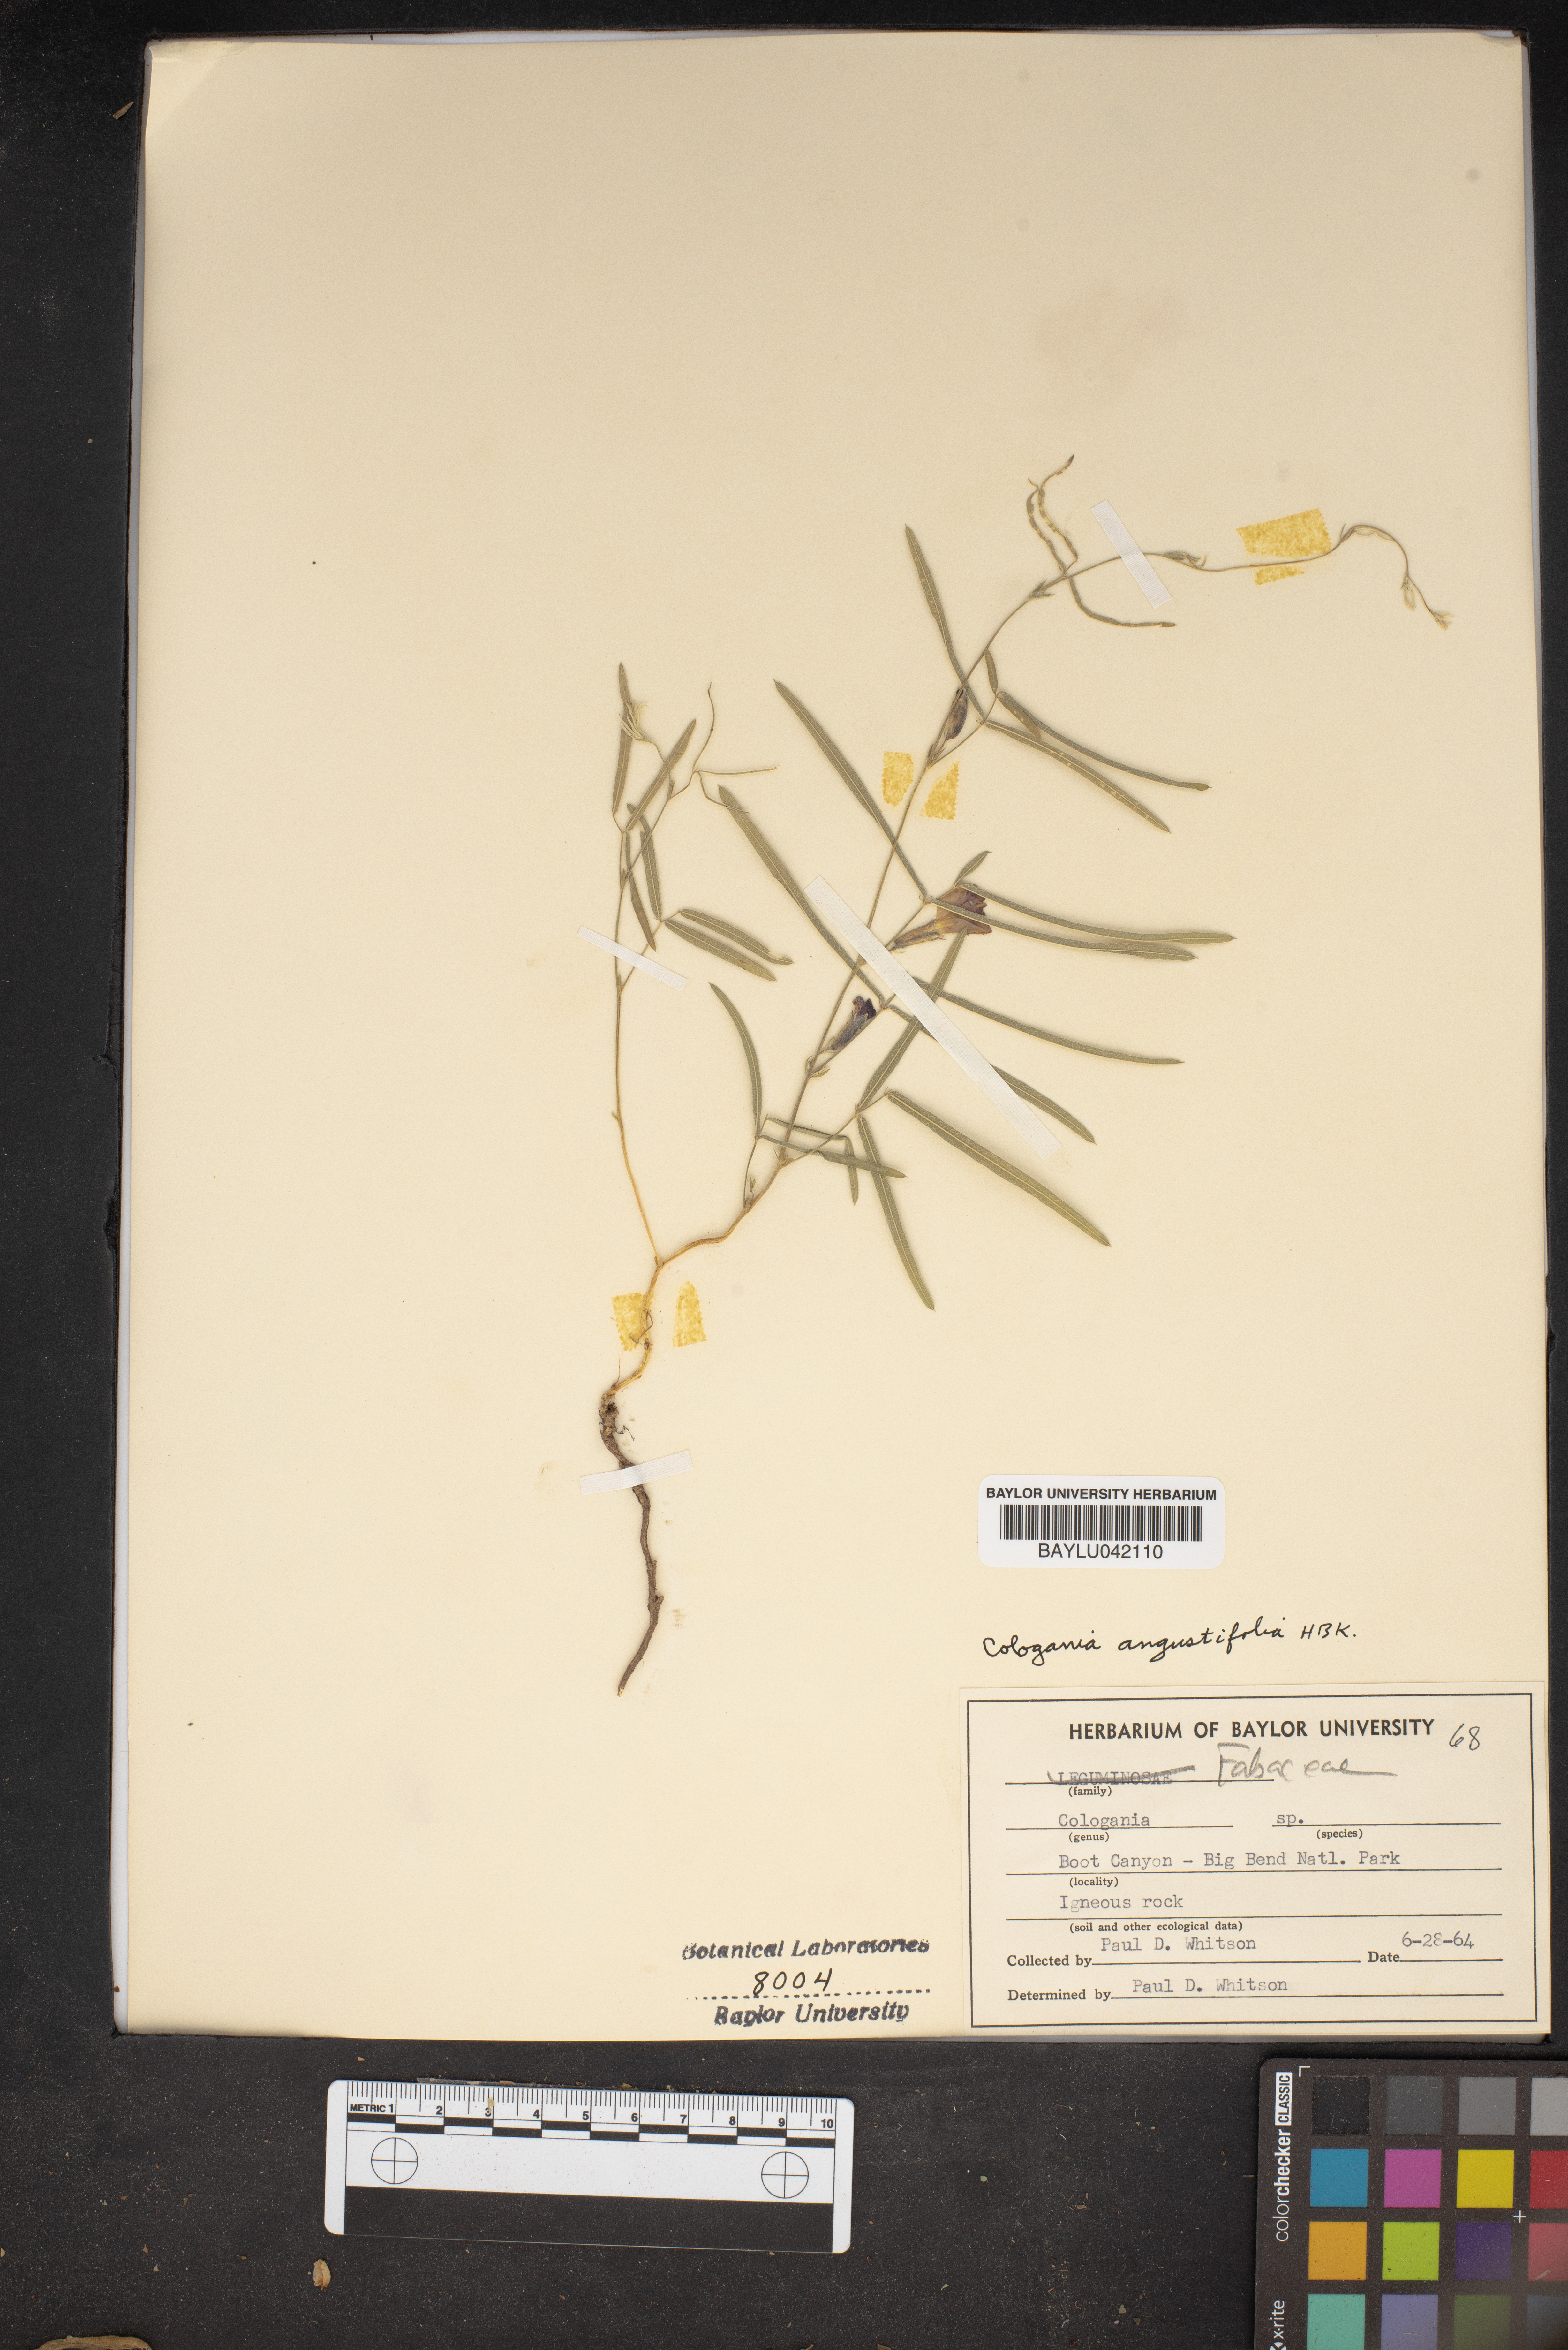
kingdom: Plantae
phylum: Tracheophyta
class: Magnoliopsida
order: Fabales
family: Fabaceae
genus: Cologania
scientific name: Cologania
